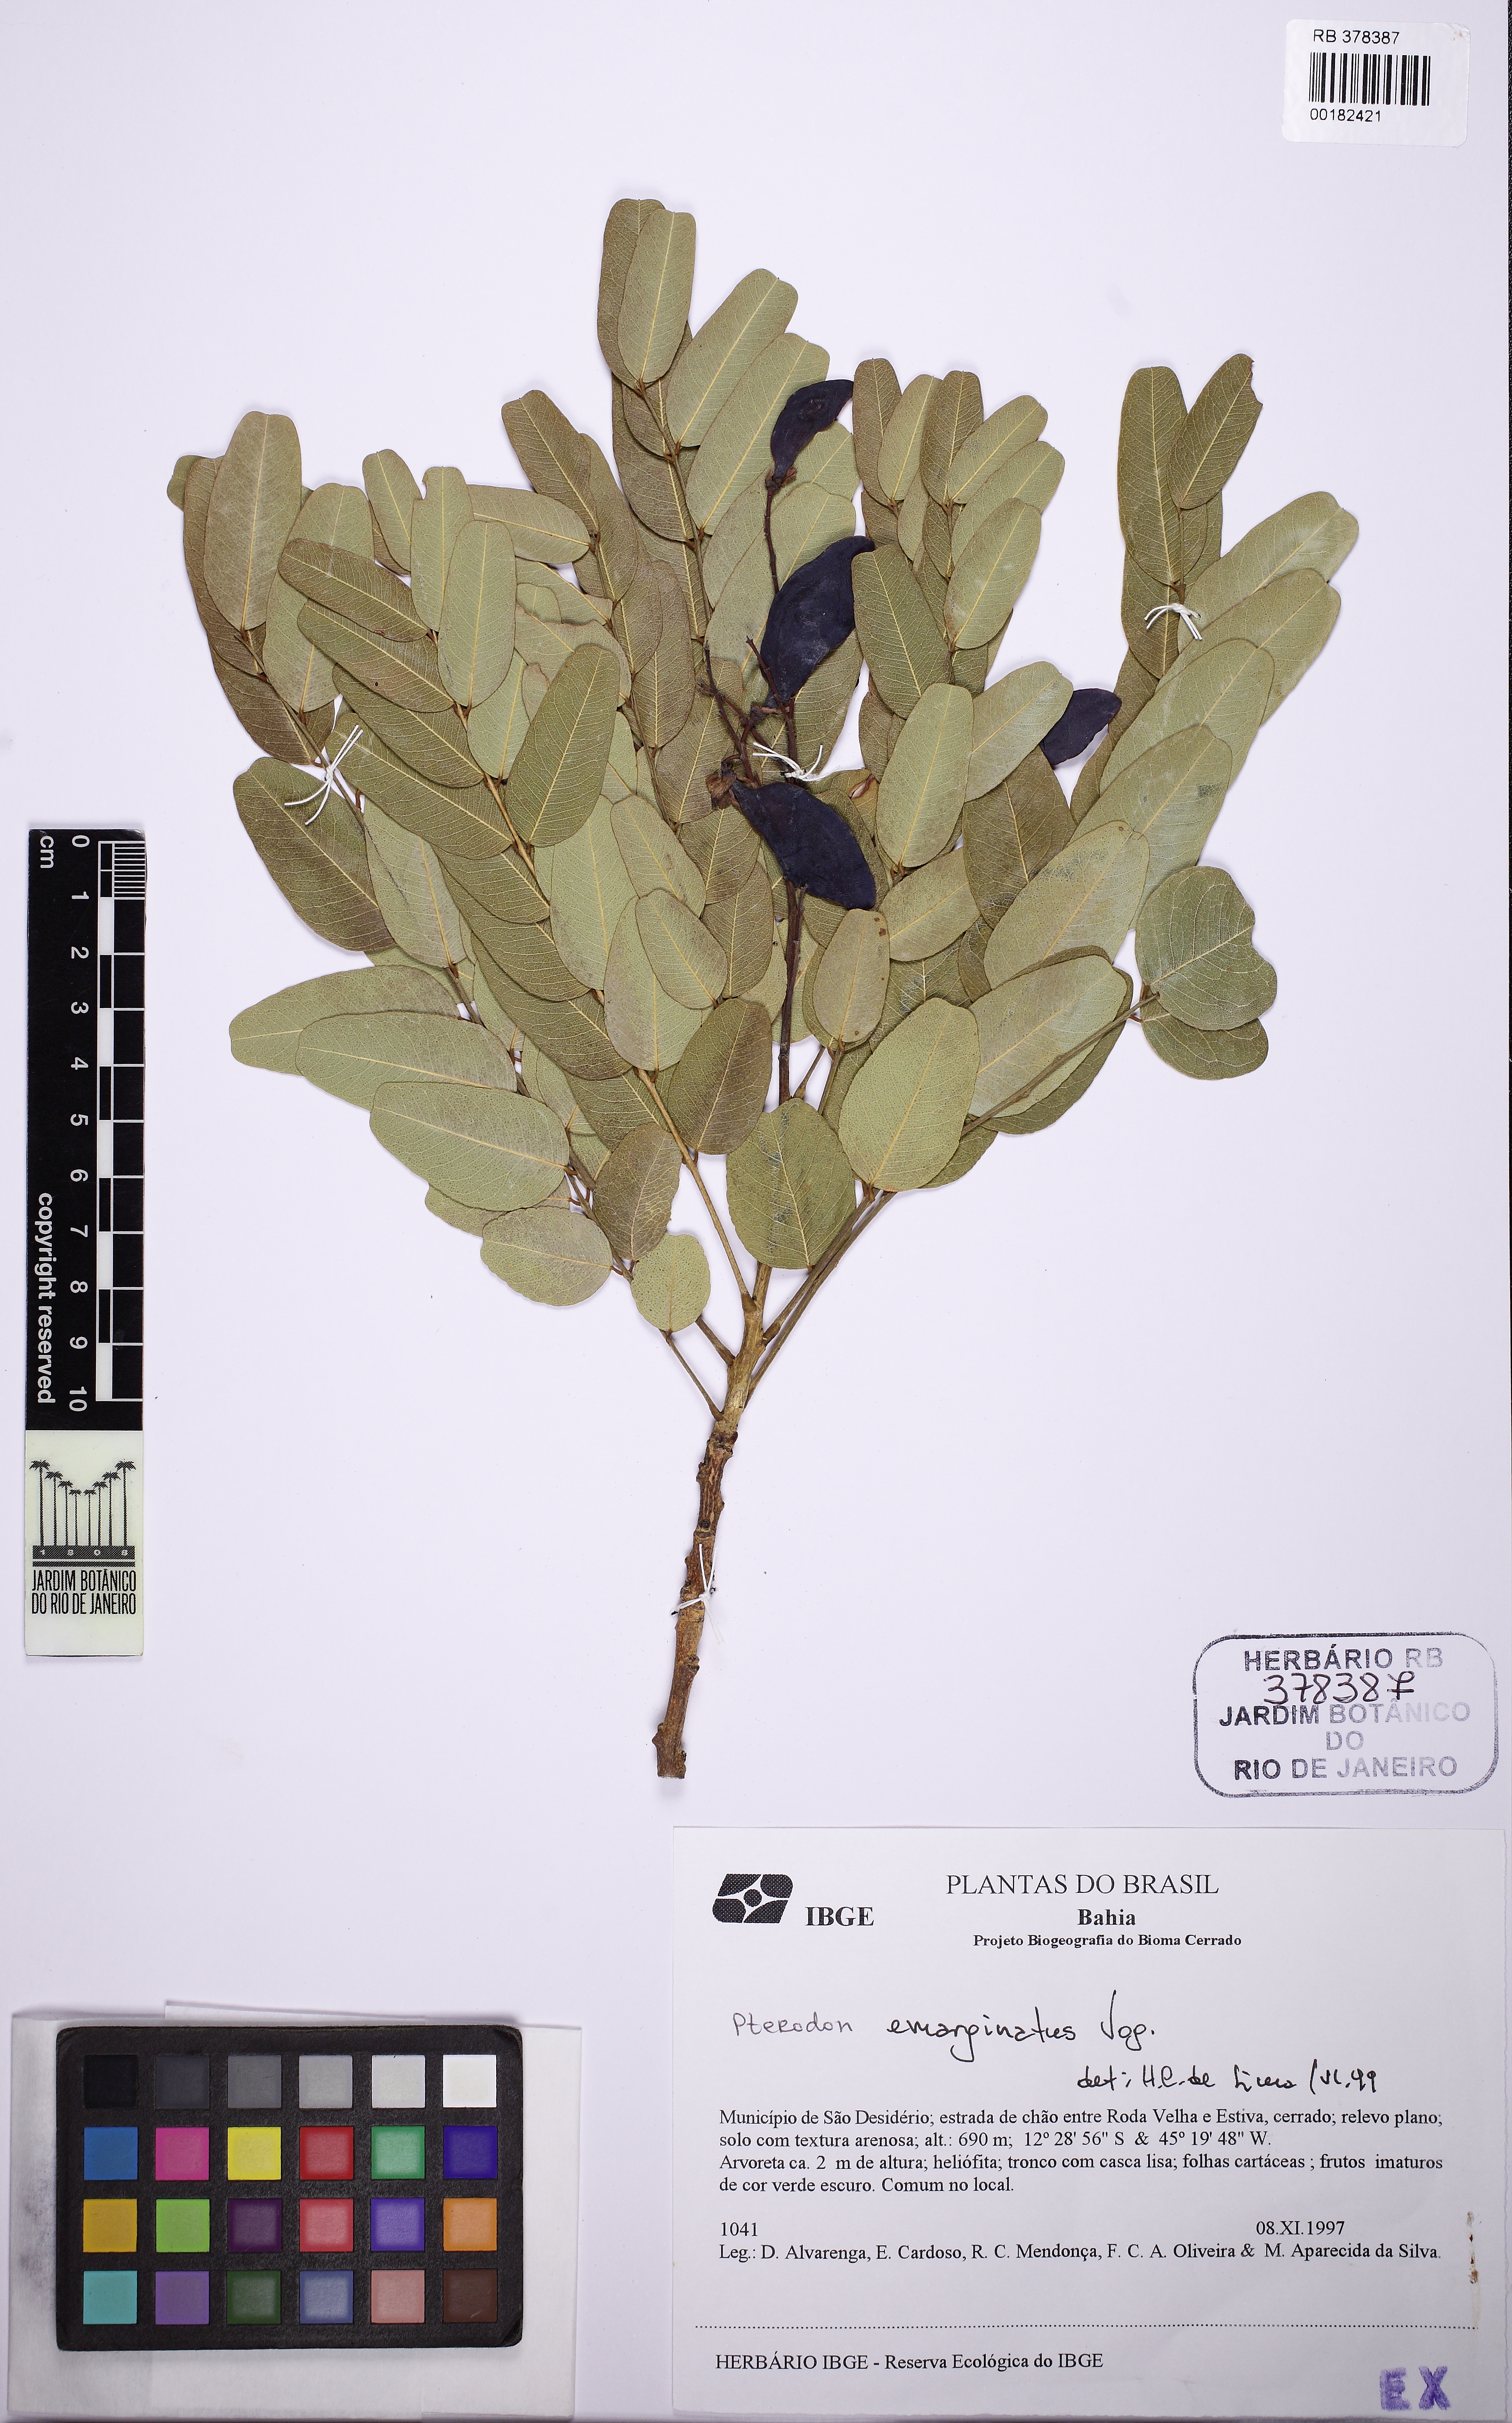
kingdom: Plantae
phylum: Tracheophyta
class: Magnoliopsida
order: Fabales
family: Fabaceae
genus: Pterodon
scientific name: Pterodon emarginatus
